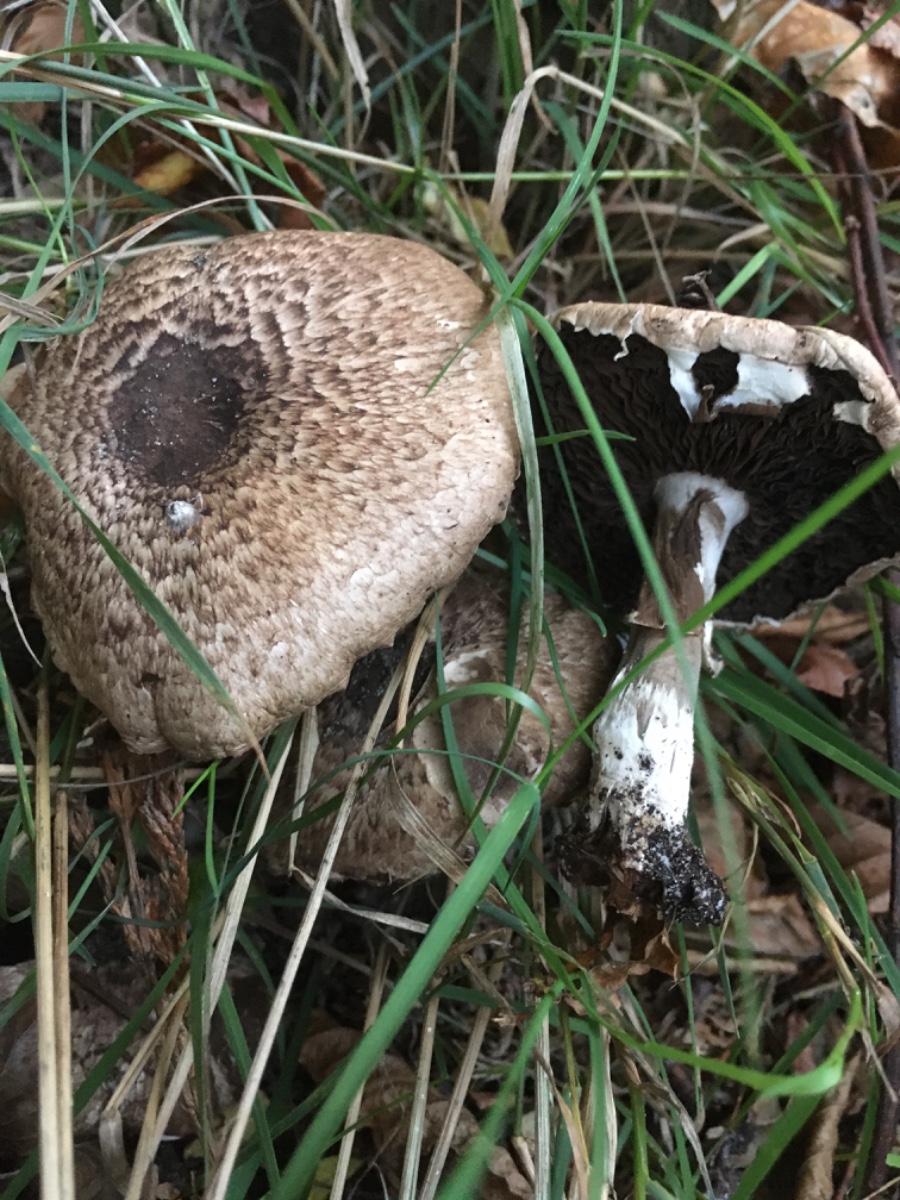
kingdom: Fungi
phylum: Basidiomycota
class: Agaricomycetes
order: Agaricales
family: Agaricaceae
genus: Agaricus
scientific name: Agaricus impudicus
